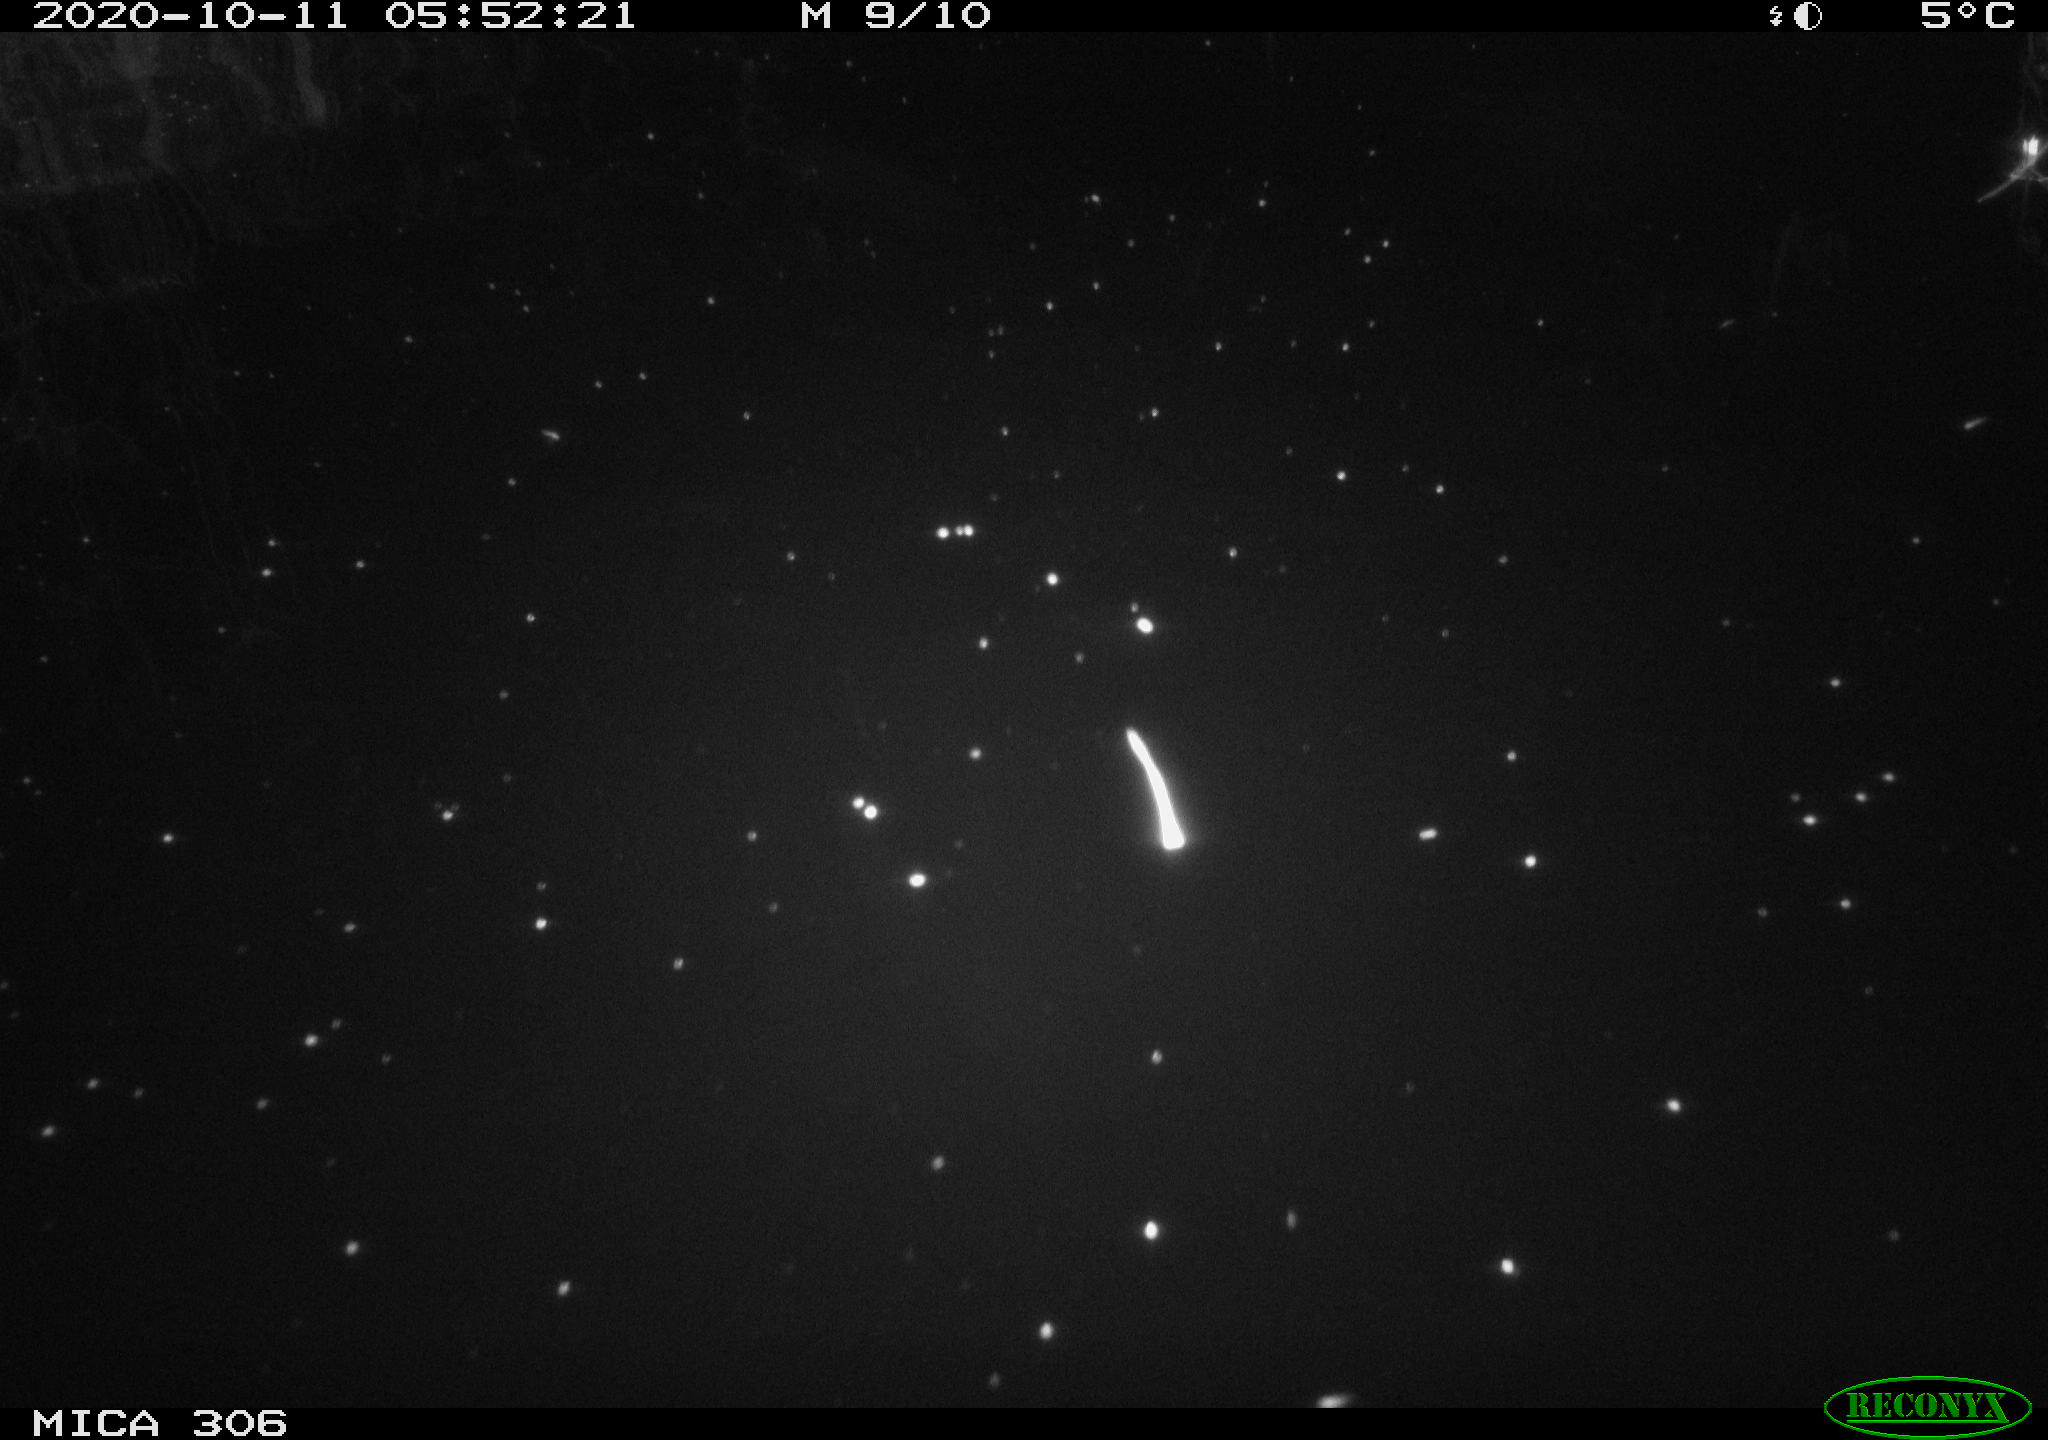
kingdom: Animalia
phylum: Chordata
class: Mammalia
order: Rodentia
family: Cricetidae
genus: Ondatra
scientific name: Ondatra zibethicus
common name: Muskrat
